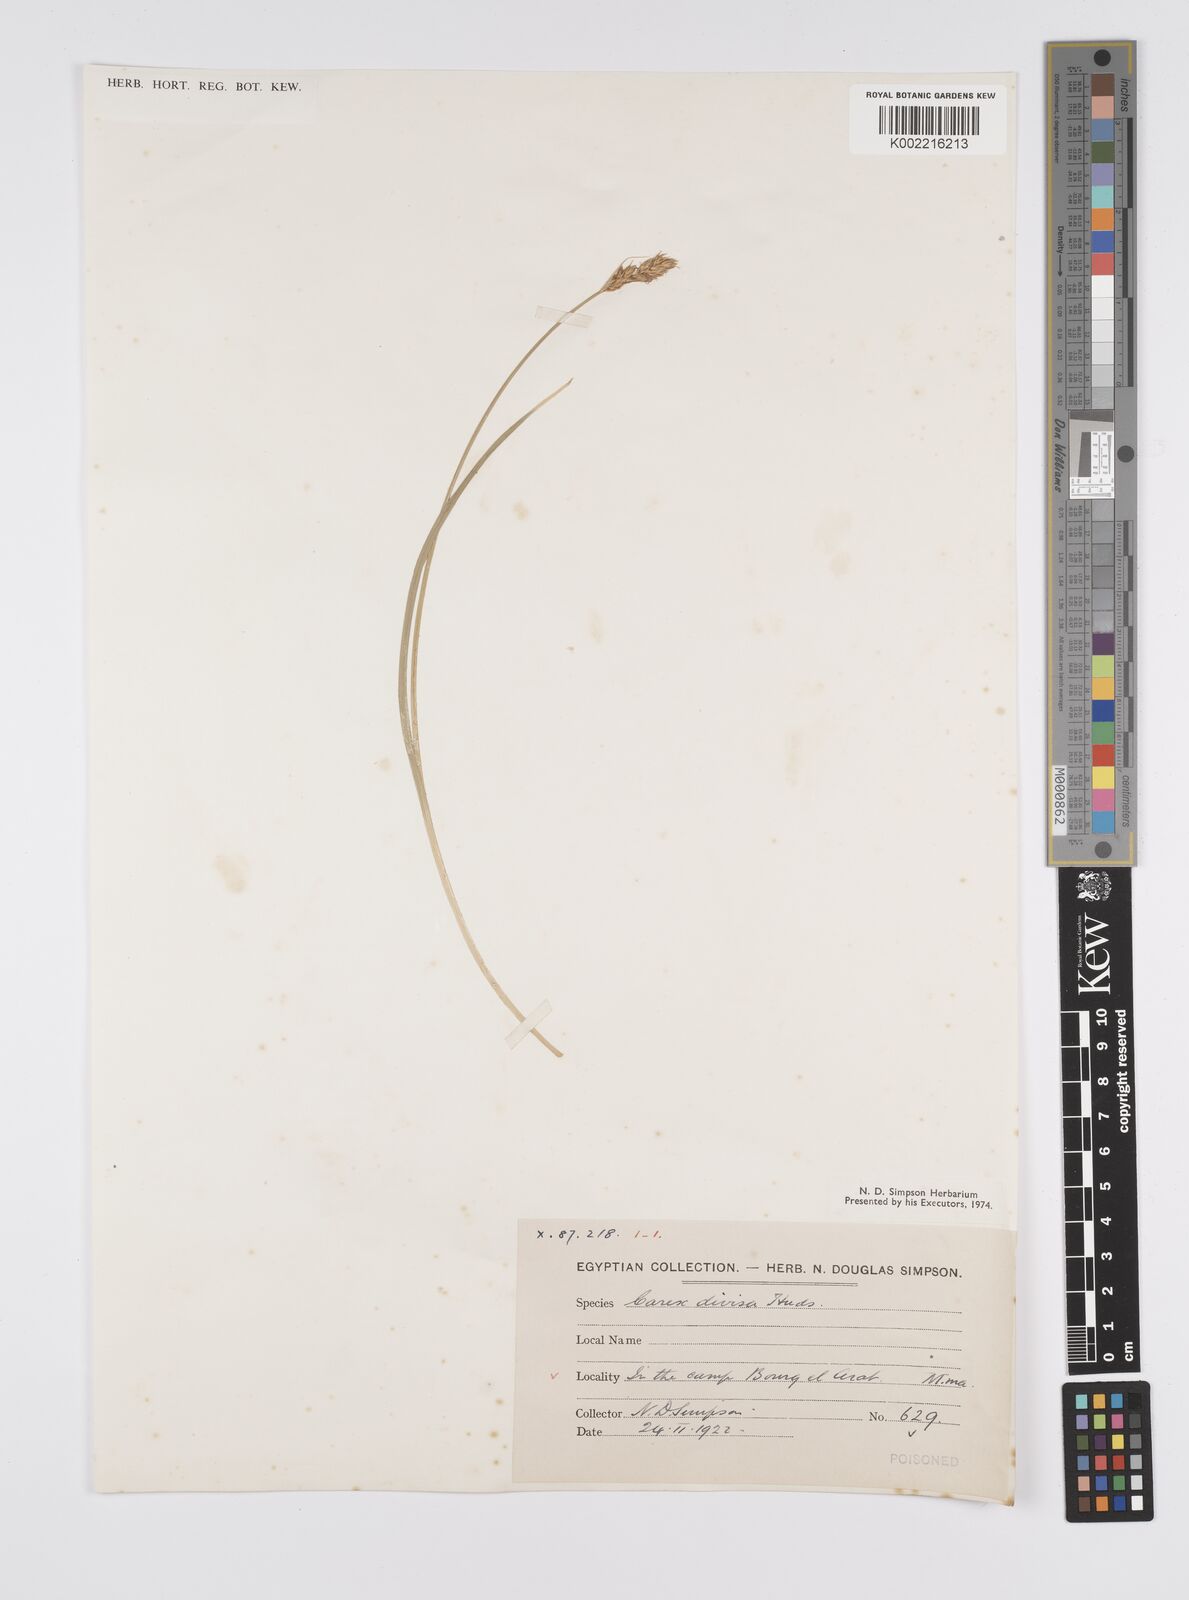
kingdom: Plantae
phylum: Tracheophyta
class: Liliopsida
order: Poales
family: Cyperaceae
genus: Carex
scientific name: Carex divisa
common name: Divided sedge
